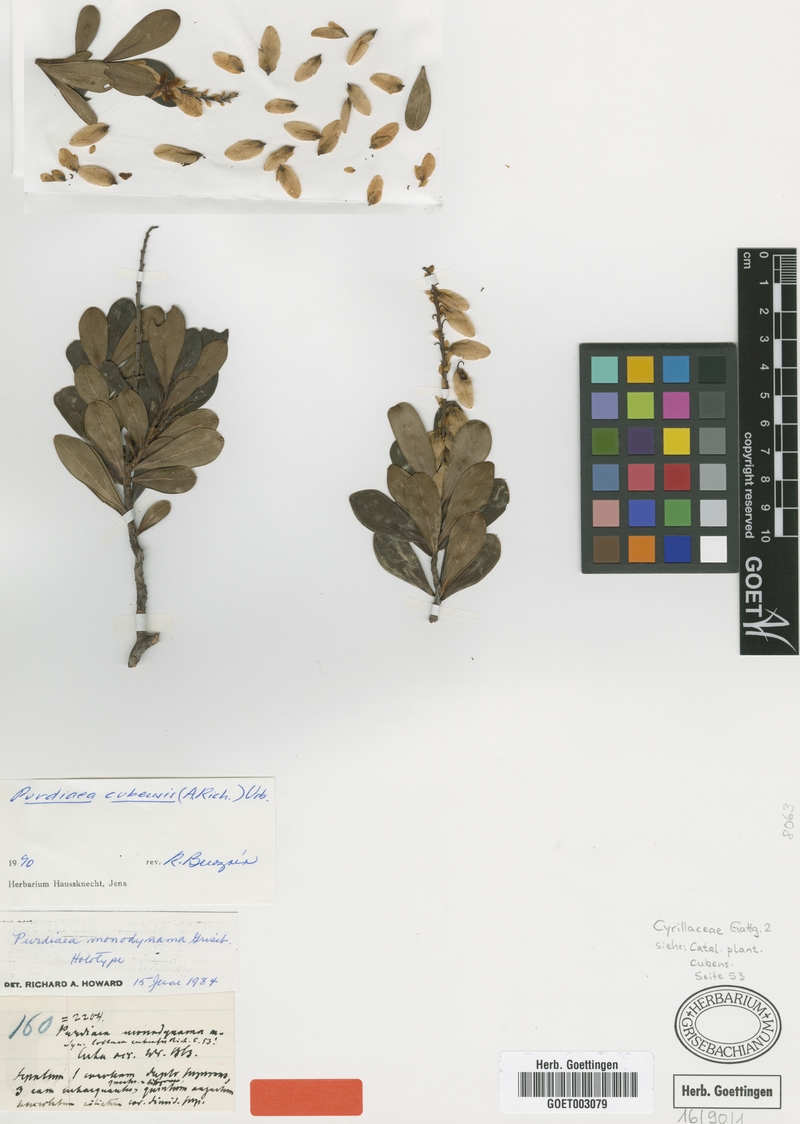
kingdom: Plantae
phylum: Tracheophyta
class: Magnoliopsida
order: Ericales
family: Clethraceae
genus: Purdiaea
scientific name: Purdiaea cubensis
